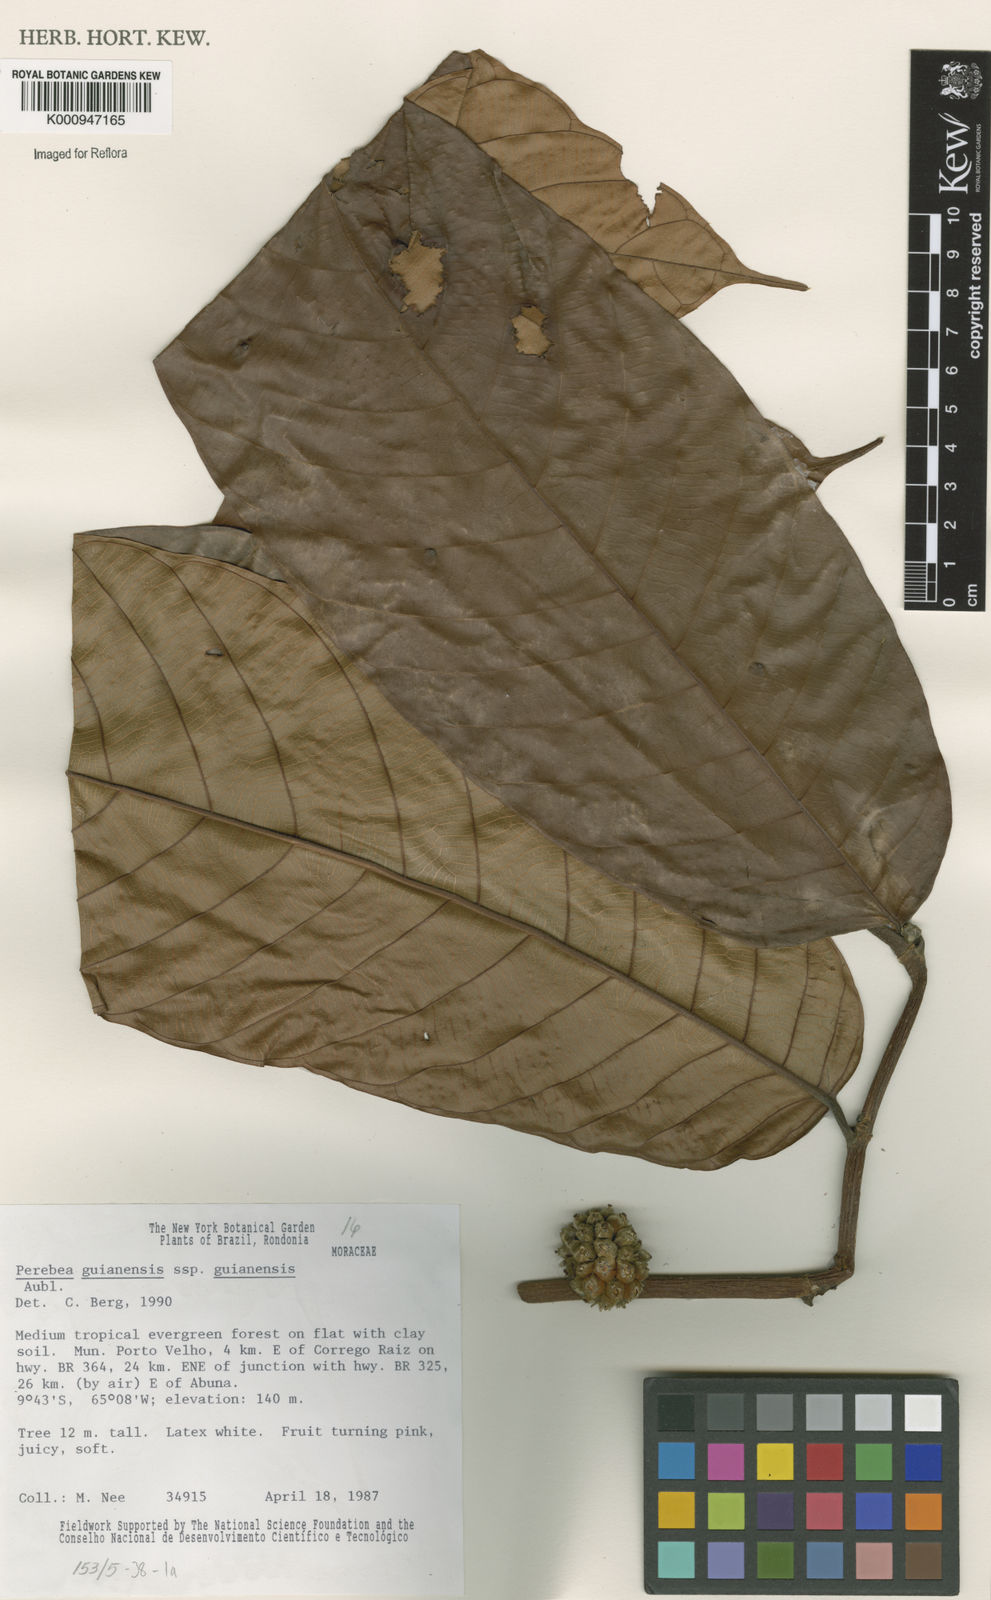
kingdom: Plantae
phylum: Tracheophyta
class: Magnoliopsida
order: Rosales
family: Moraceae
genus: Perebea
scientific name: Perebea guianensis
